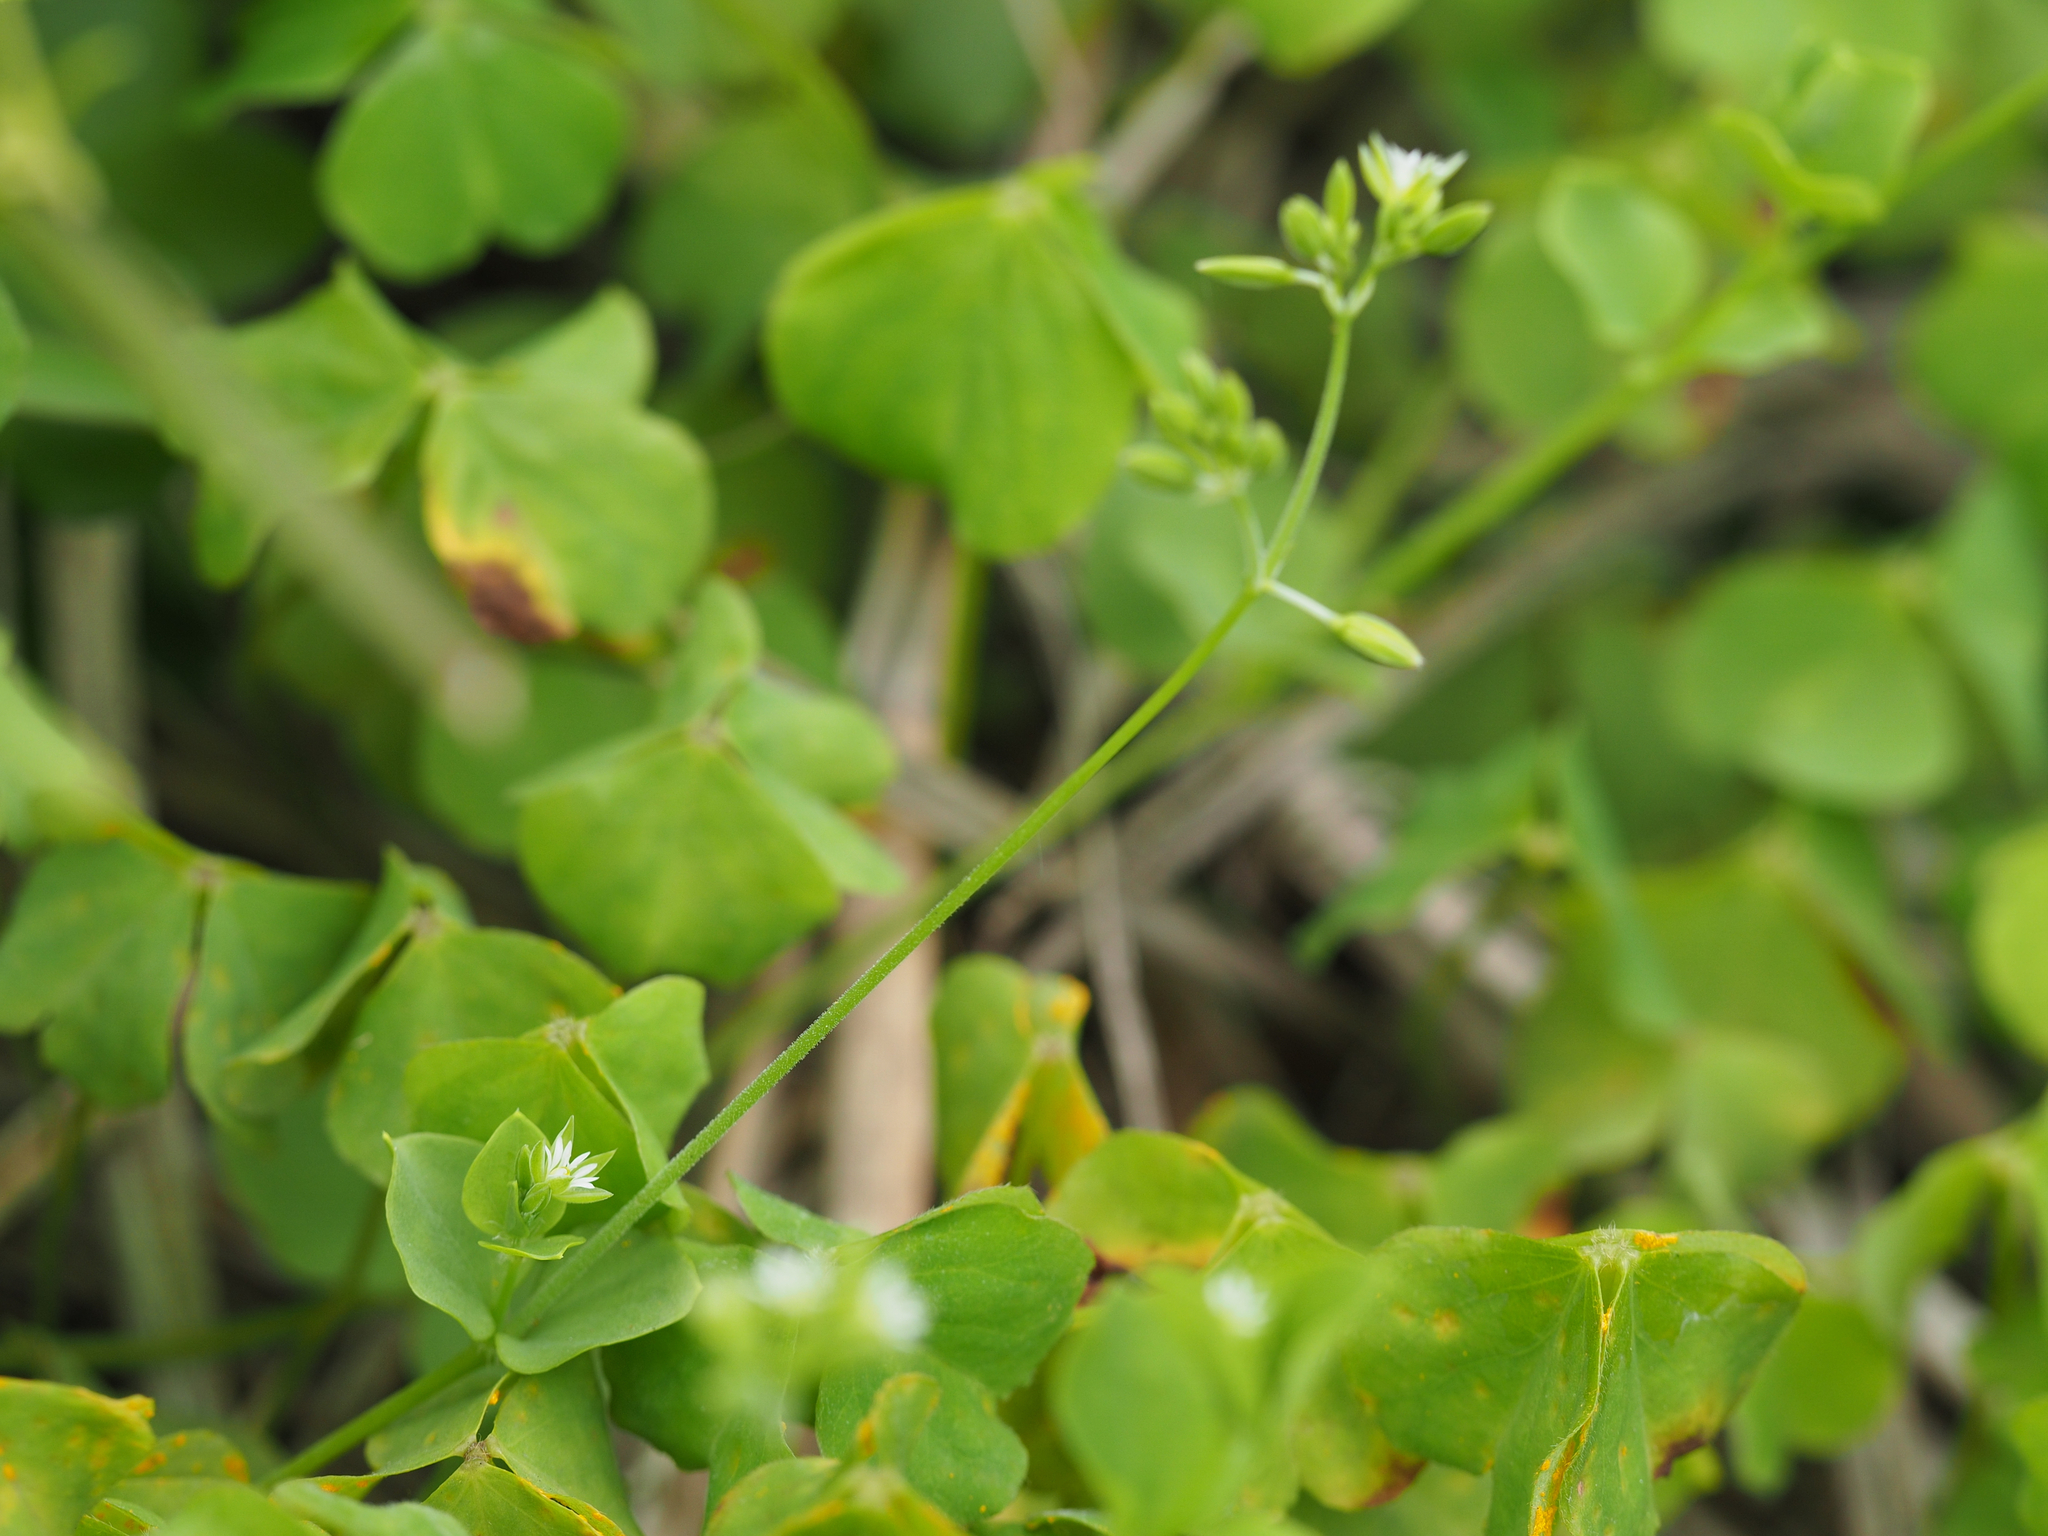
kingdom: Plantae
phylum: Tracheophyta
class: Magnoliopsida
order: Caryophyllales
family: Caryophyllaceae
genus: Drymaria
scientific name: Drymaria cordata
